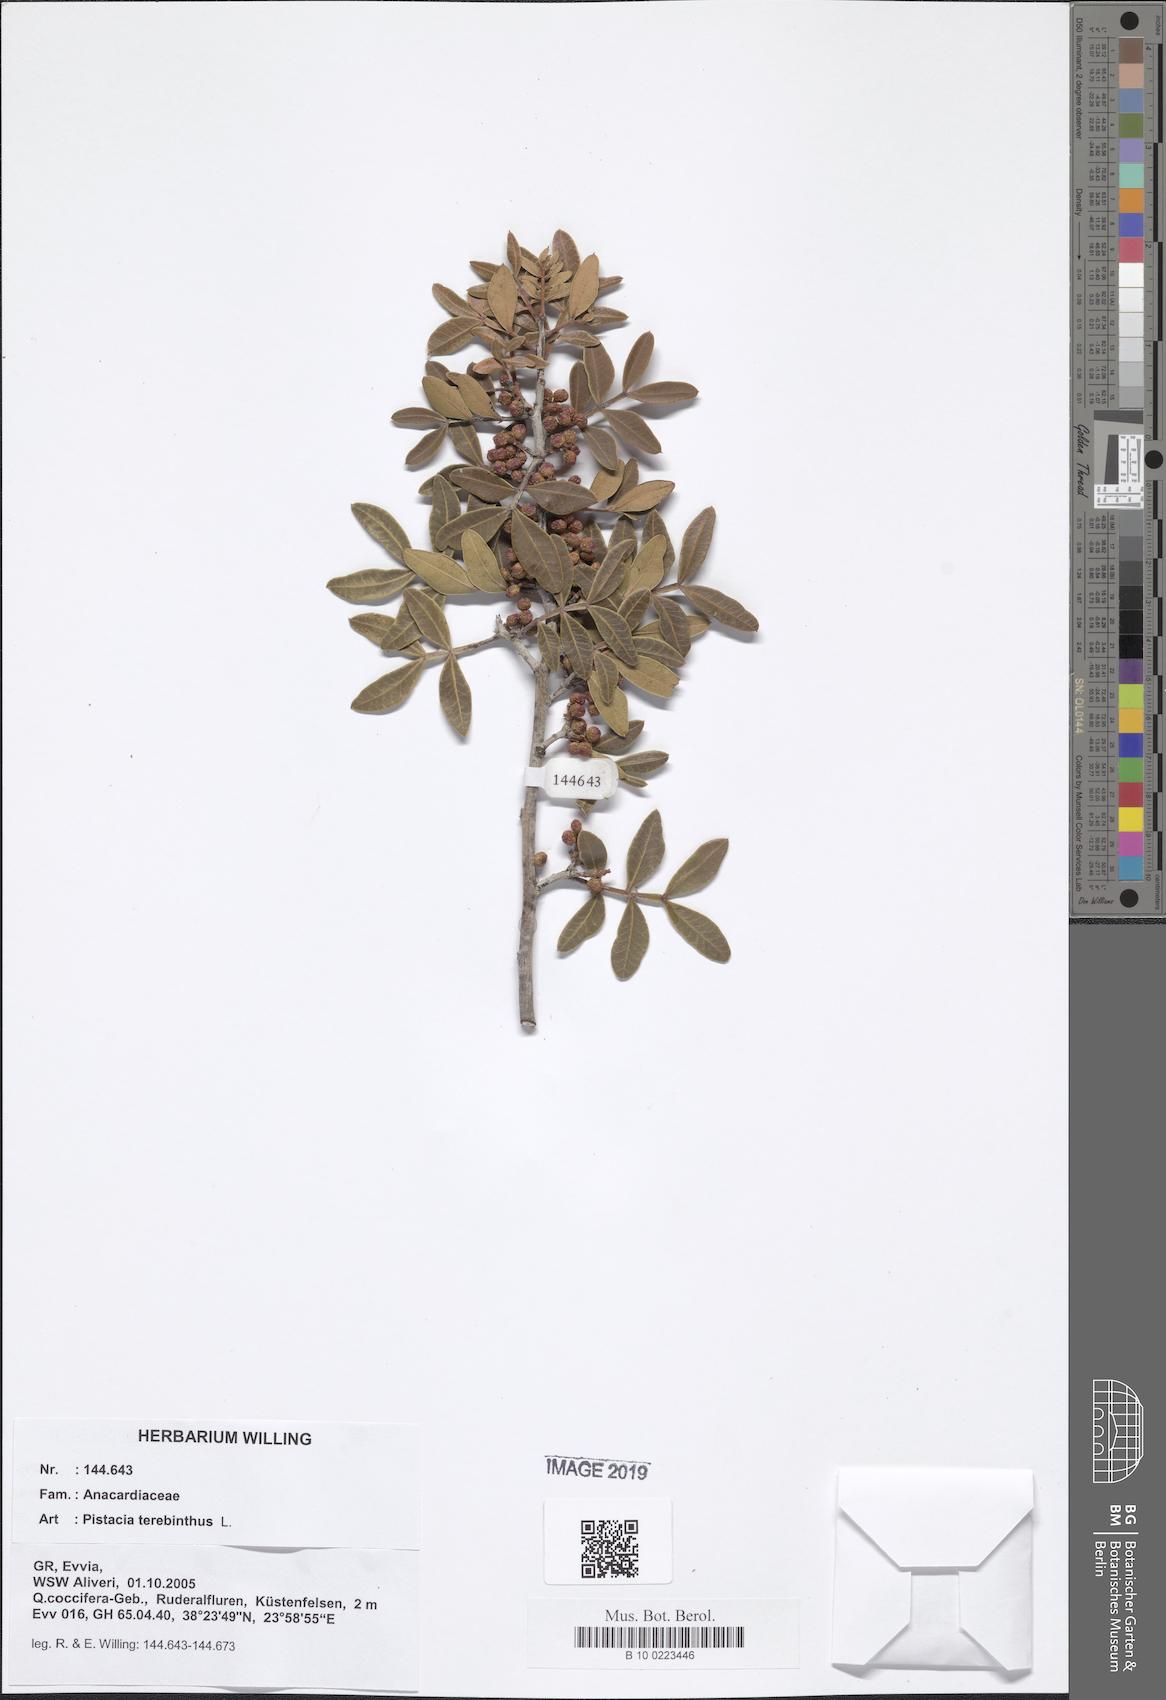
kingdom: Plantae
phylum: Tracheophyta
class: Magnoliopsida
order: Sapindales
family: Anacardiaceae
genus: Pistacia
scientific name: Pistacia terebinthus
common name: Terebinth
